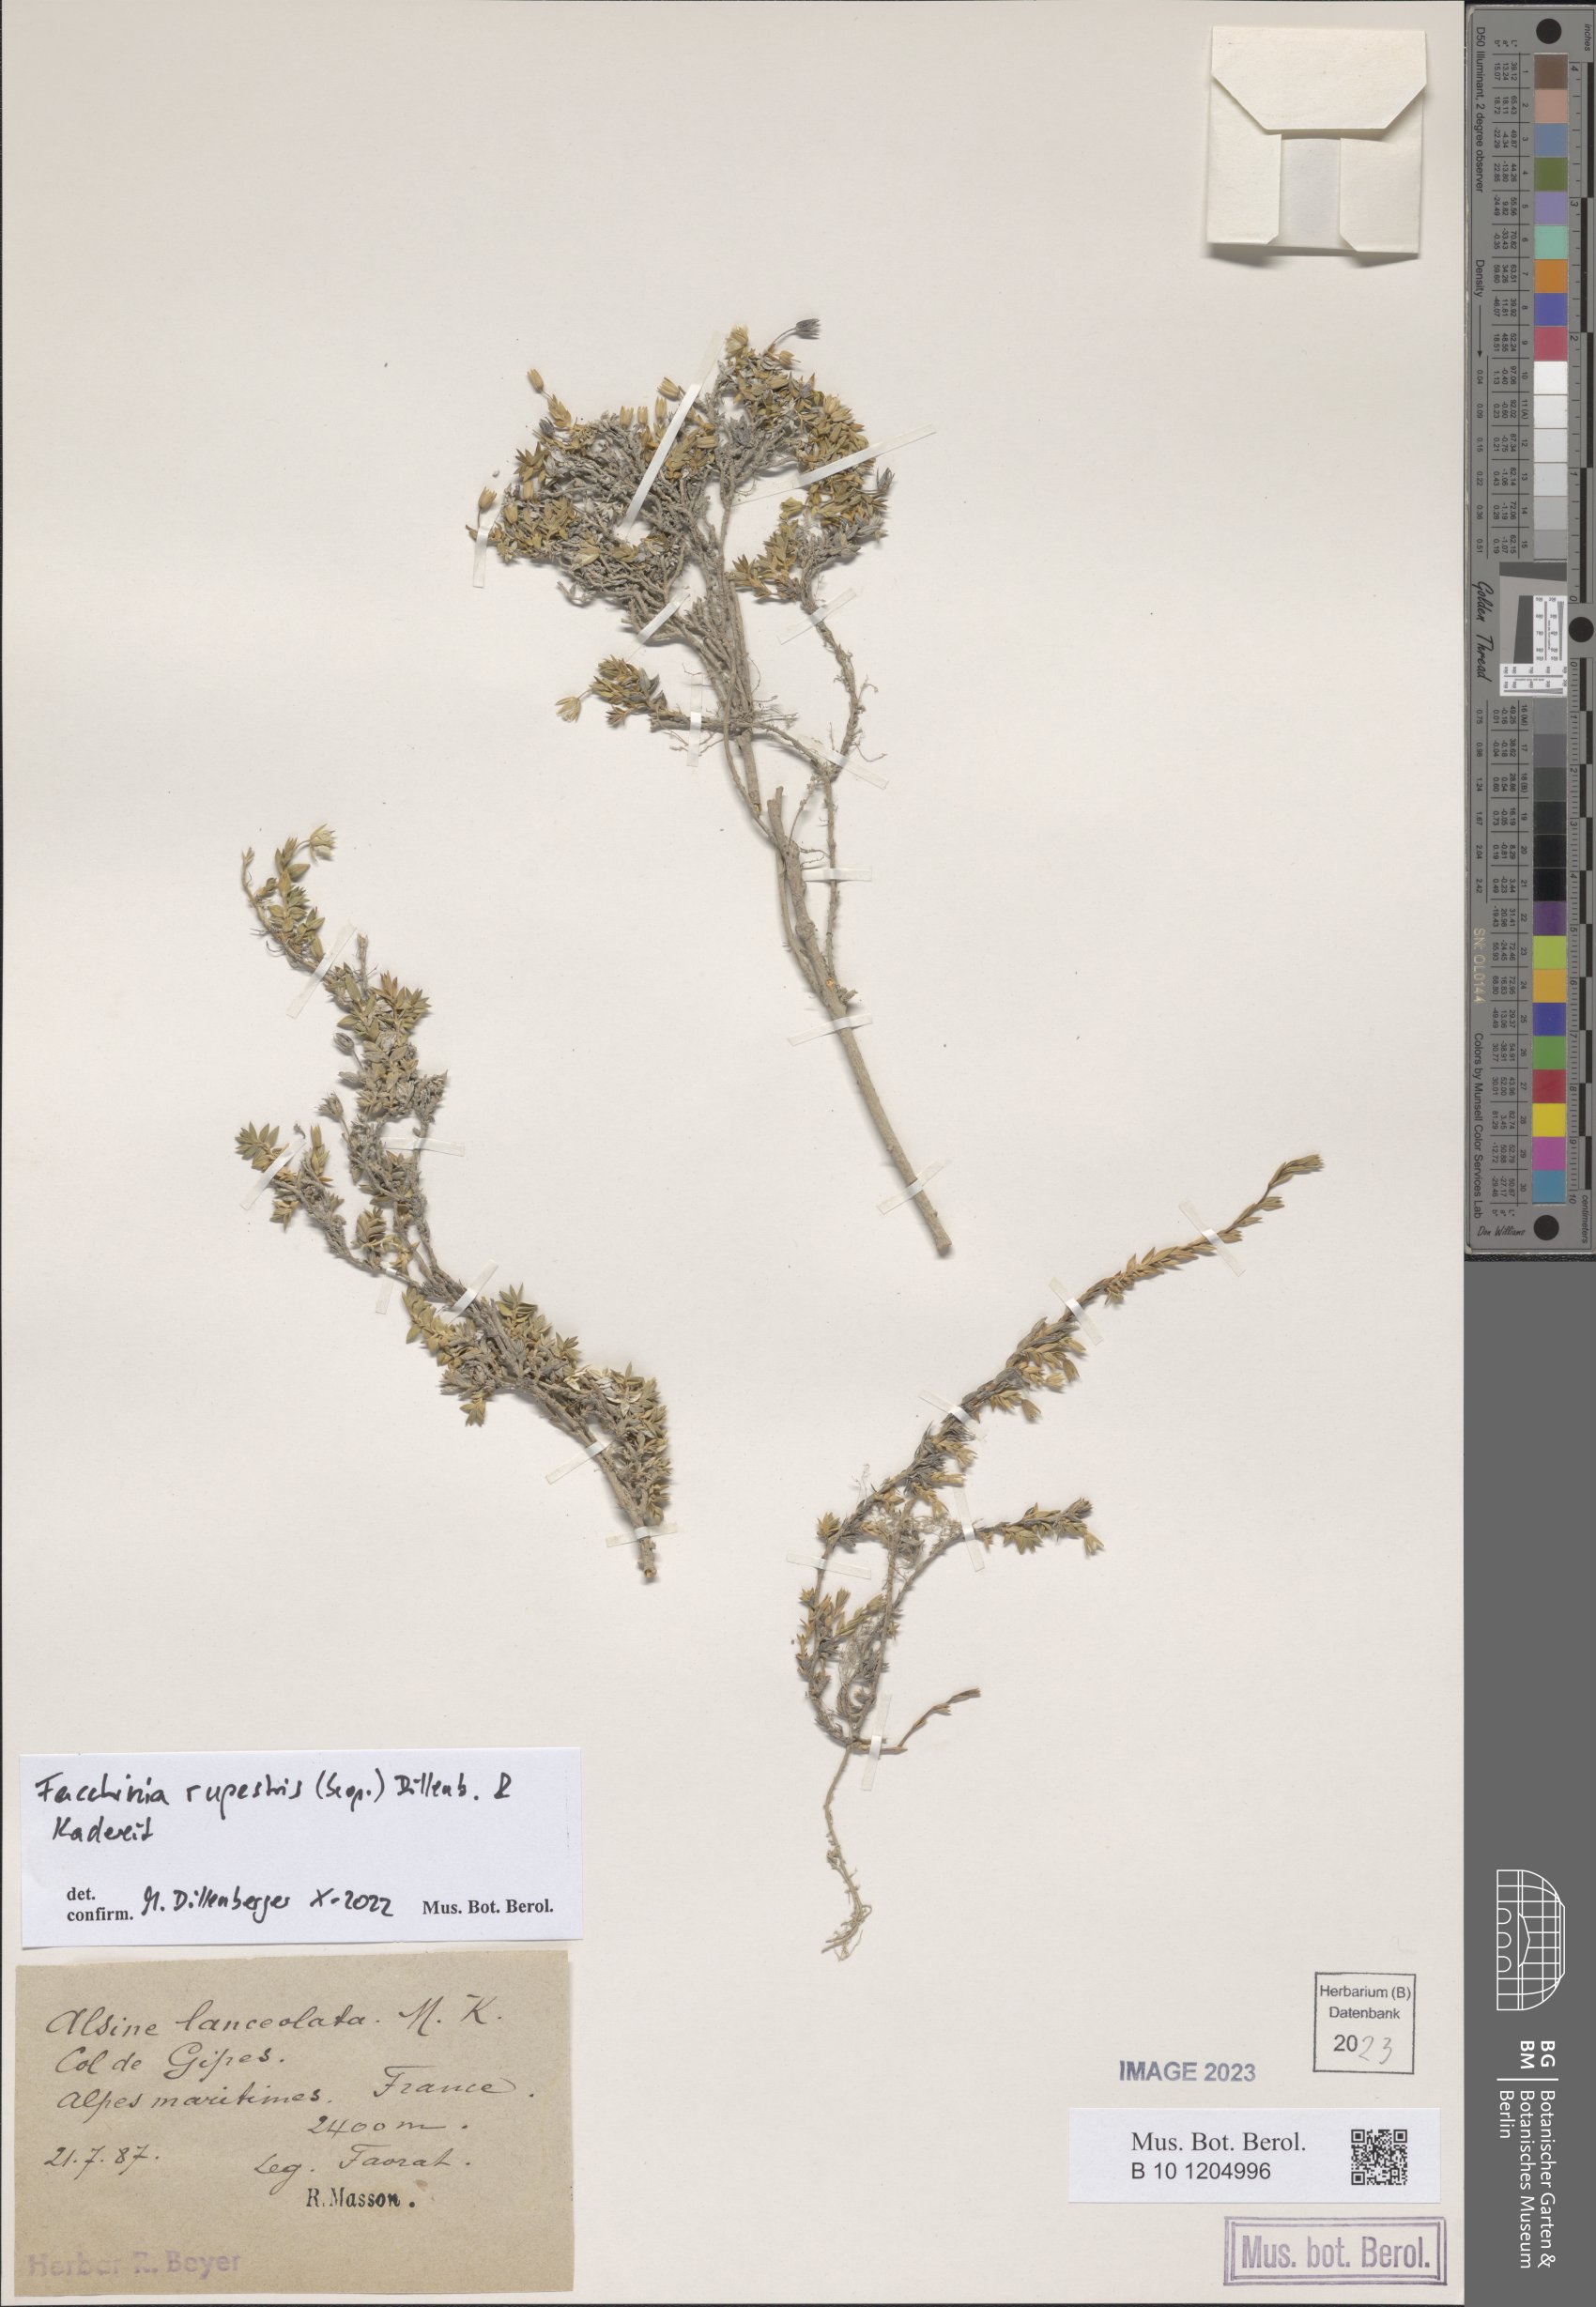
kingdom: Plantae
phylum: Tracheophyta
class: Magnoliopsida
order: Caryophyllales
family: Caryophyllaceae
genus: Facchinia
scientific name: Facchinia rupestris
